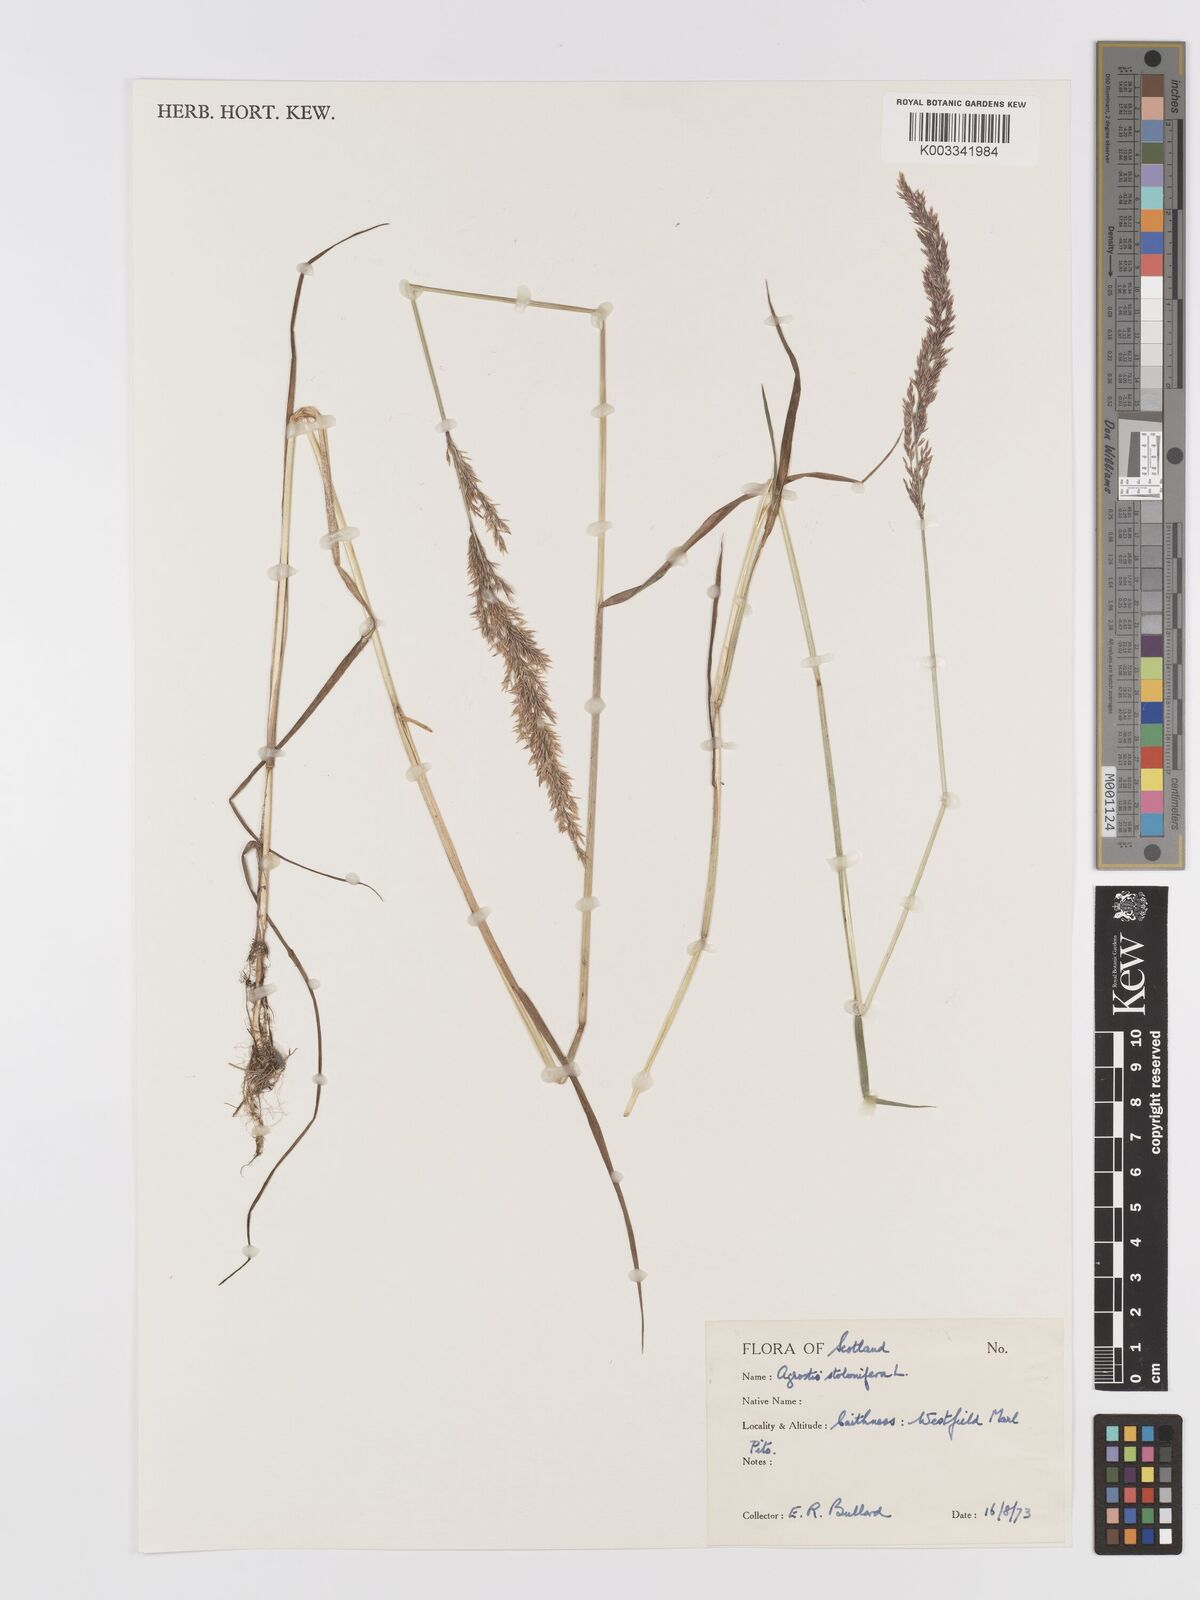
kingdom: Plantae
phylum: Tracheophyta
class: Liliopsida
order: Poales
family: Poaceae
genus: Agrostis
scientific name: Agrostis stolonifera
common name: Creeping bentgrass
